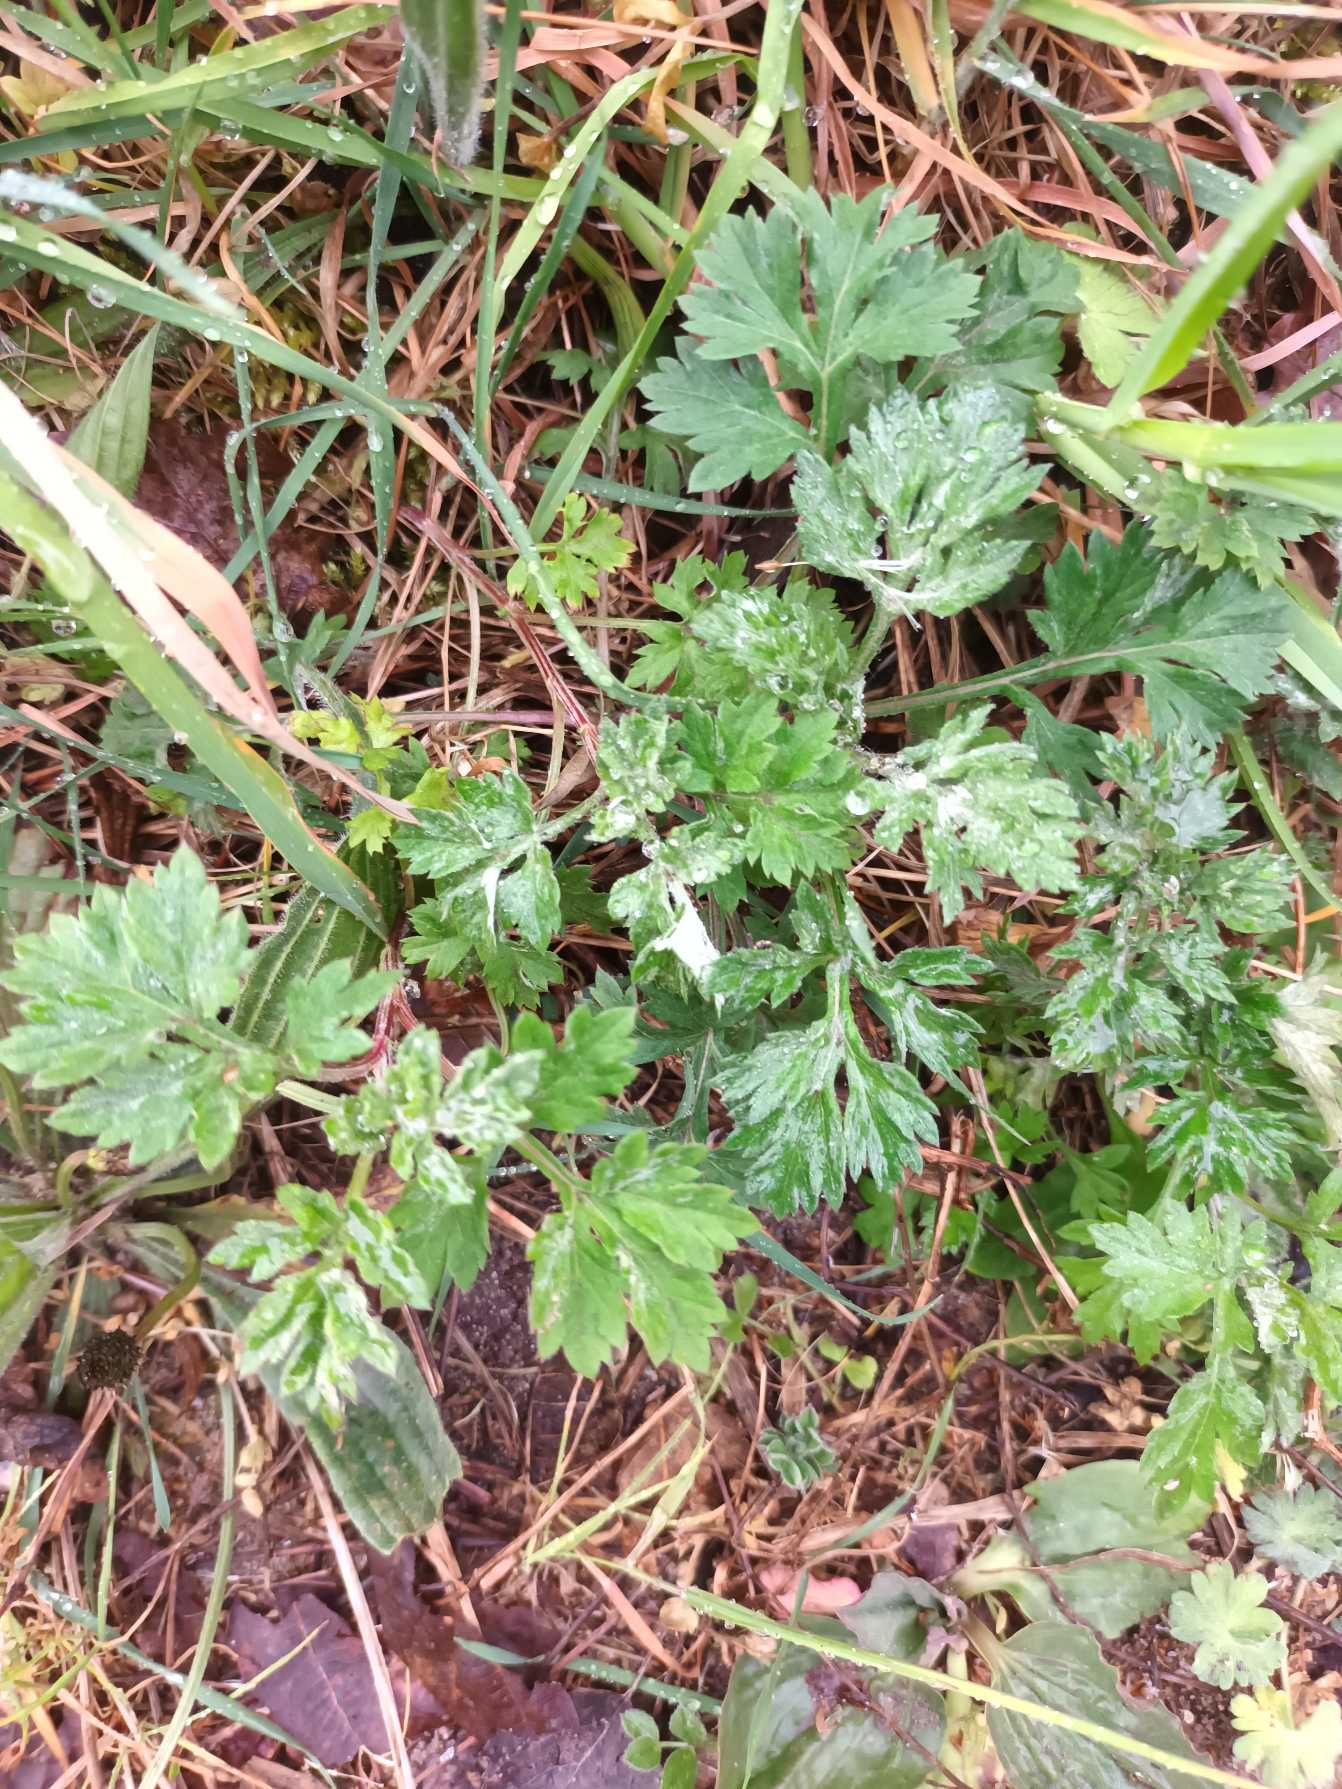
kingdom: Plantae
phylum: Tracheophyta
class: Magnoliopsida
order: Asterales
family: Asteraceae
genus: Artemisia
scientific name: Artemisia vulgaris
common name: Grå-bynke
